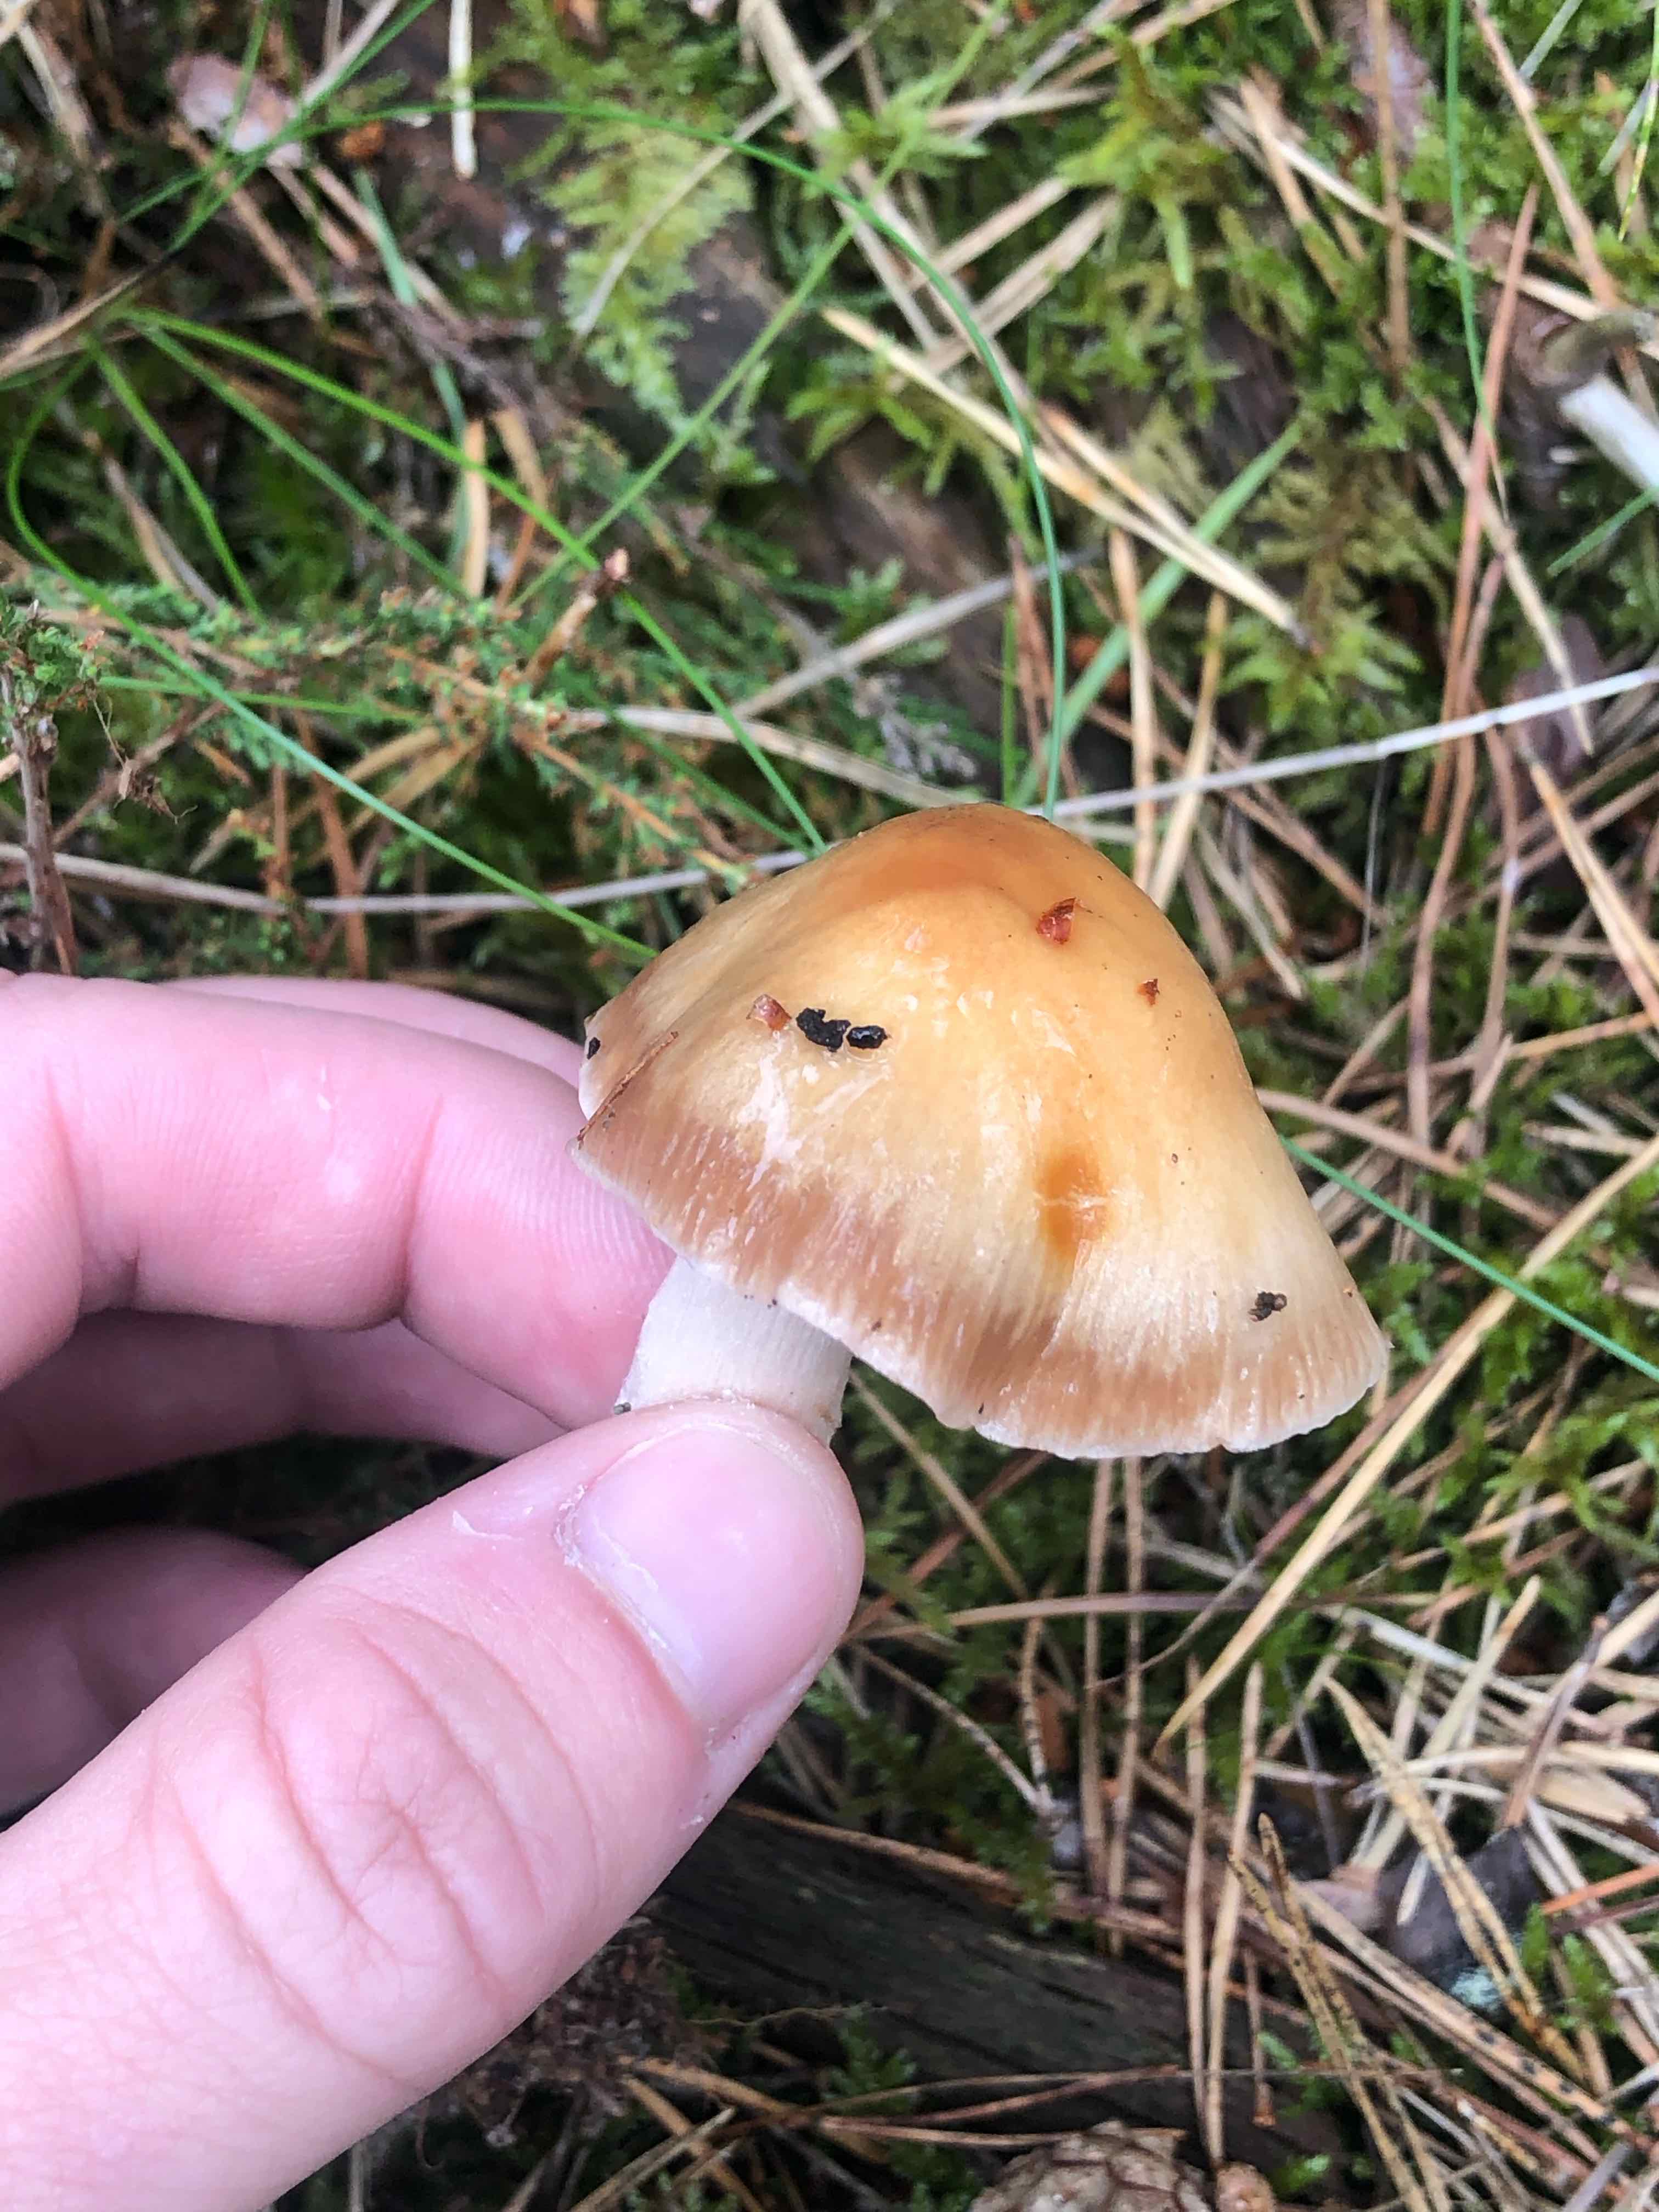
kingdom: Fungi
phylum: Basidiomycota
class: Agaricomycetes
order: Agaricales
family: Cortinariaceae
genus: Cortinarius
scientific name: Cortinarius mucifluus
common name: rynket slørhat
